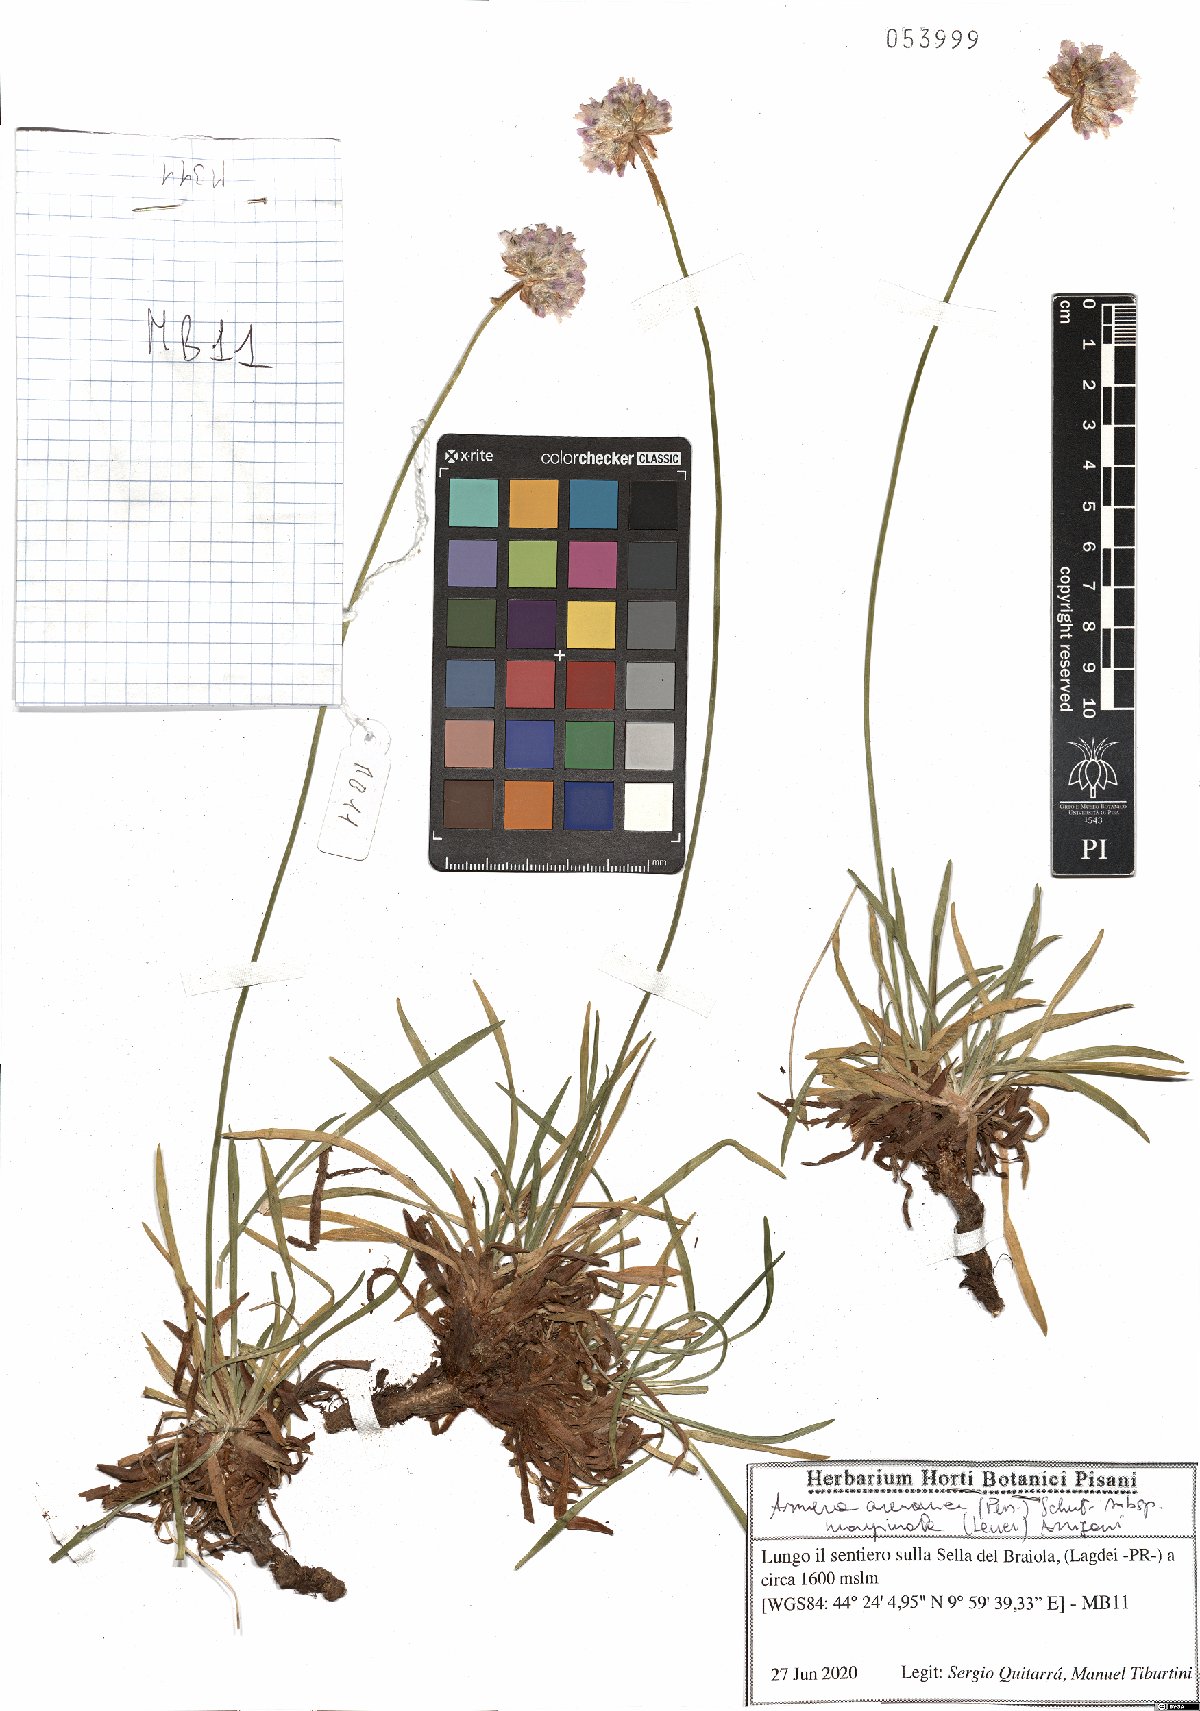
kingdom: Plantae
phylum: Tracheophyta
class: Magnoliopsida
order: Caryophyllales
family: Plumbaginaceae
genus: Armeria
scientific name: Armeria arenaria
